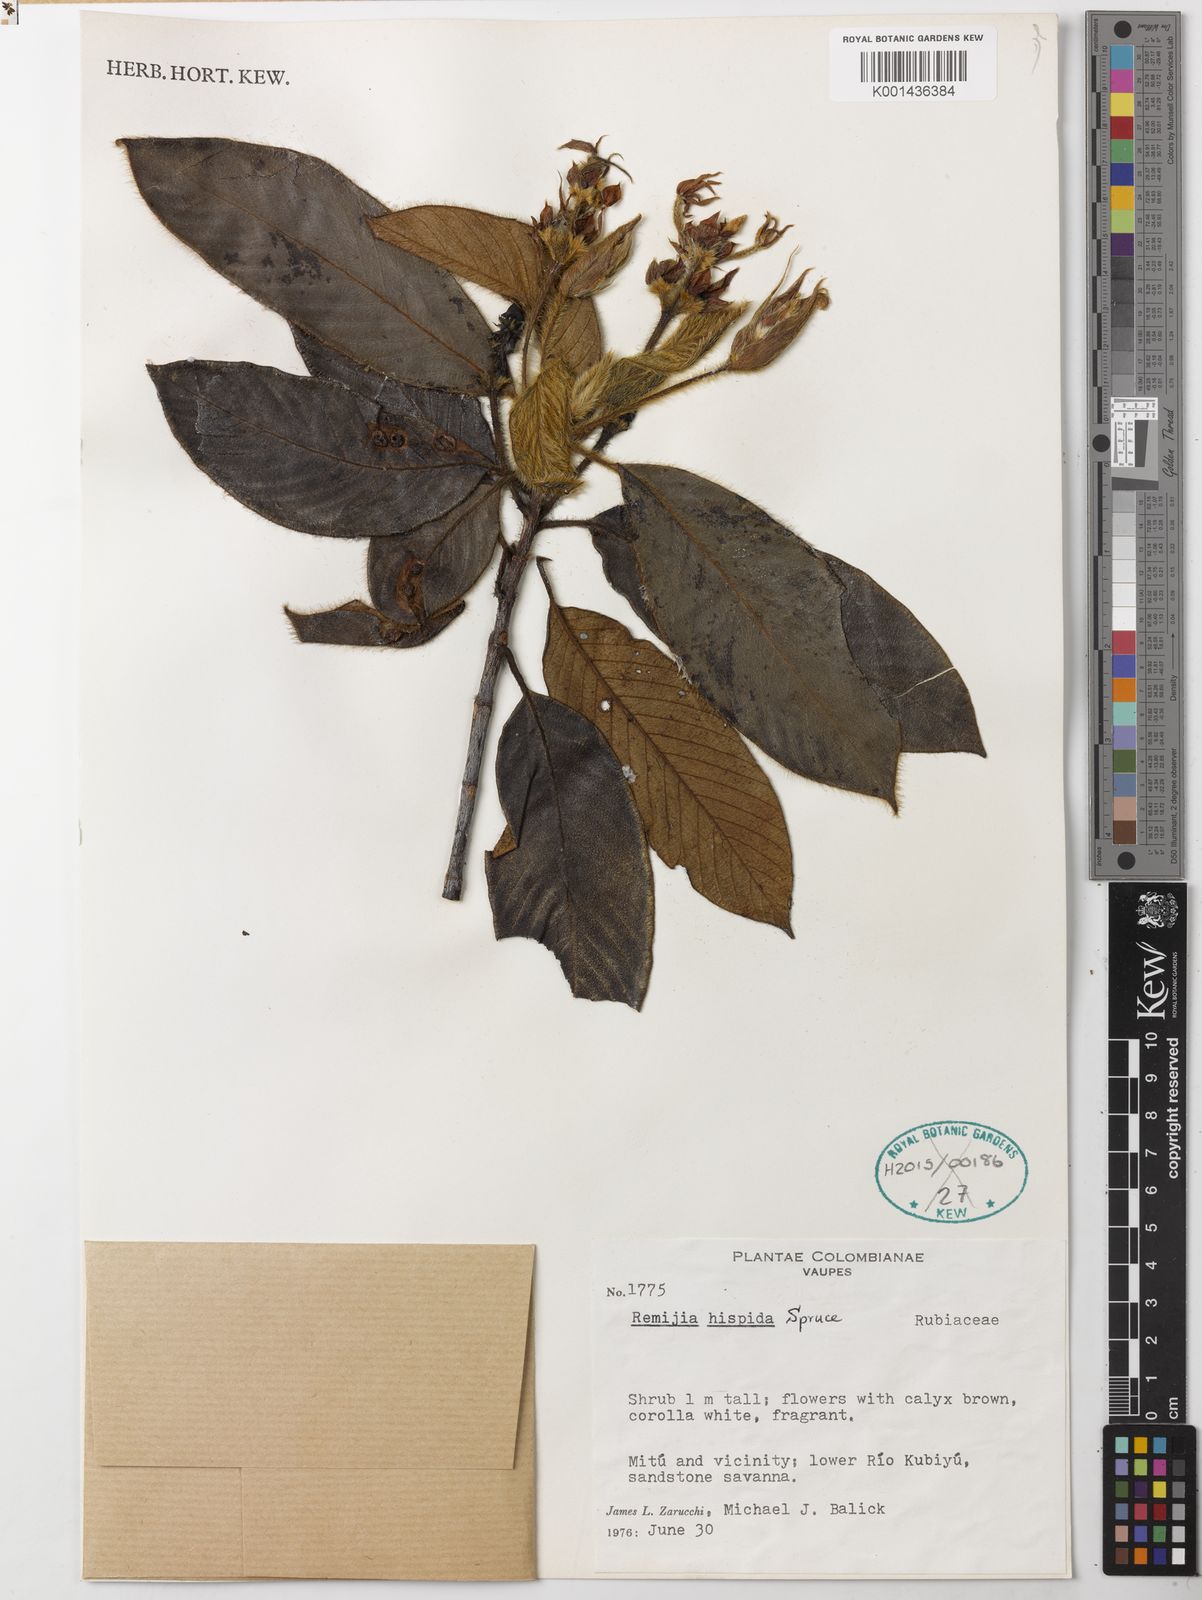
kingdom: Plantae
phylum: Tracheophyta
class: Magnoliopsida
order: Gentianales
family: Rubiaceae
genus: Remijia
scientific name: Remijia
